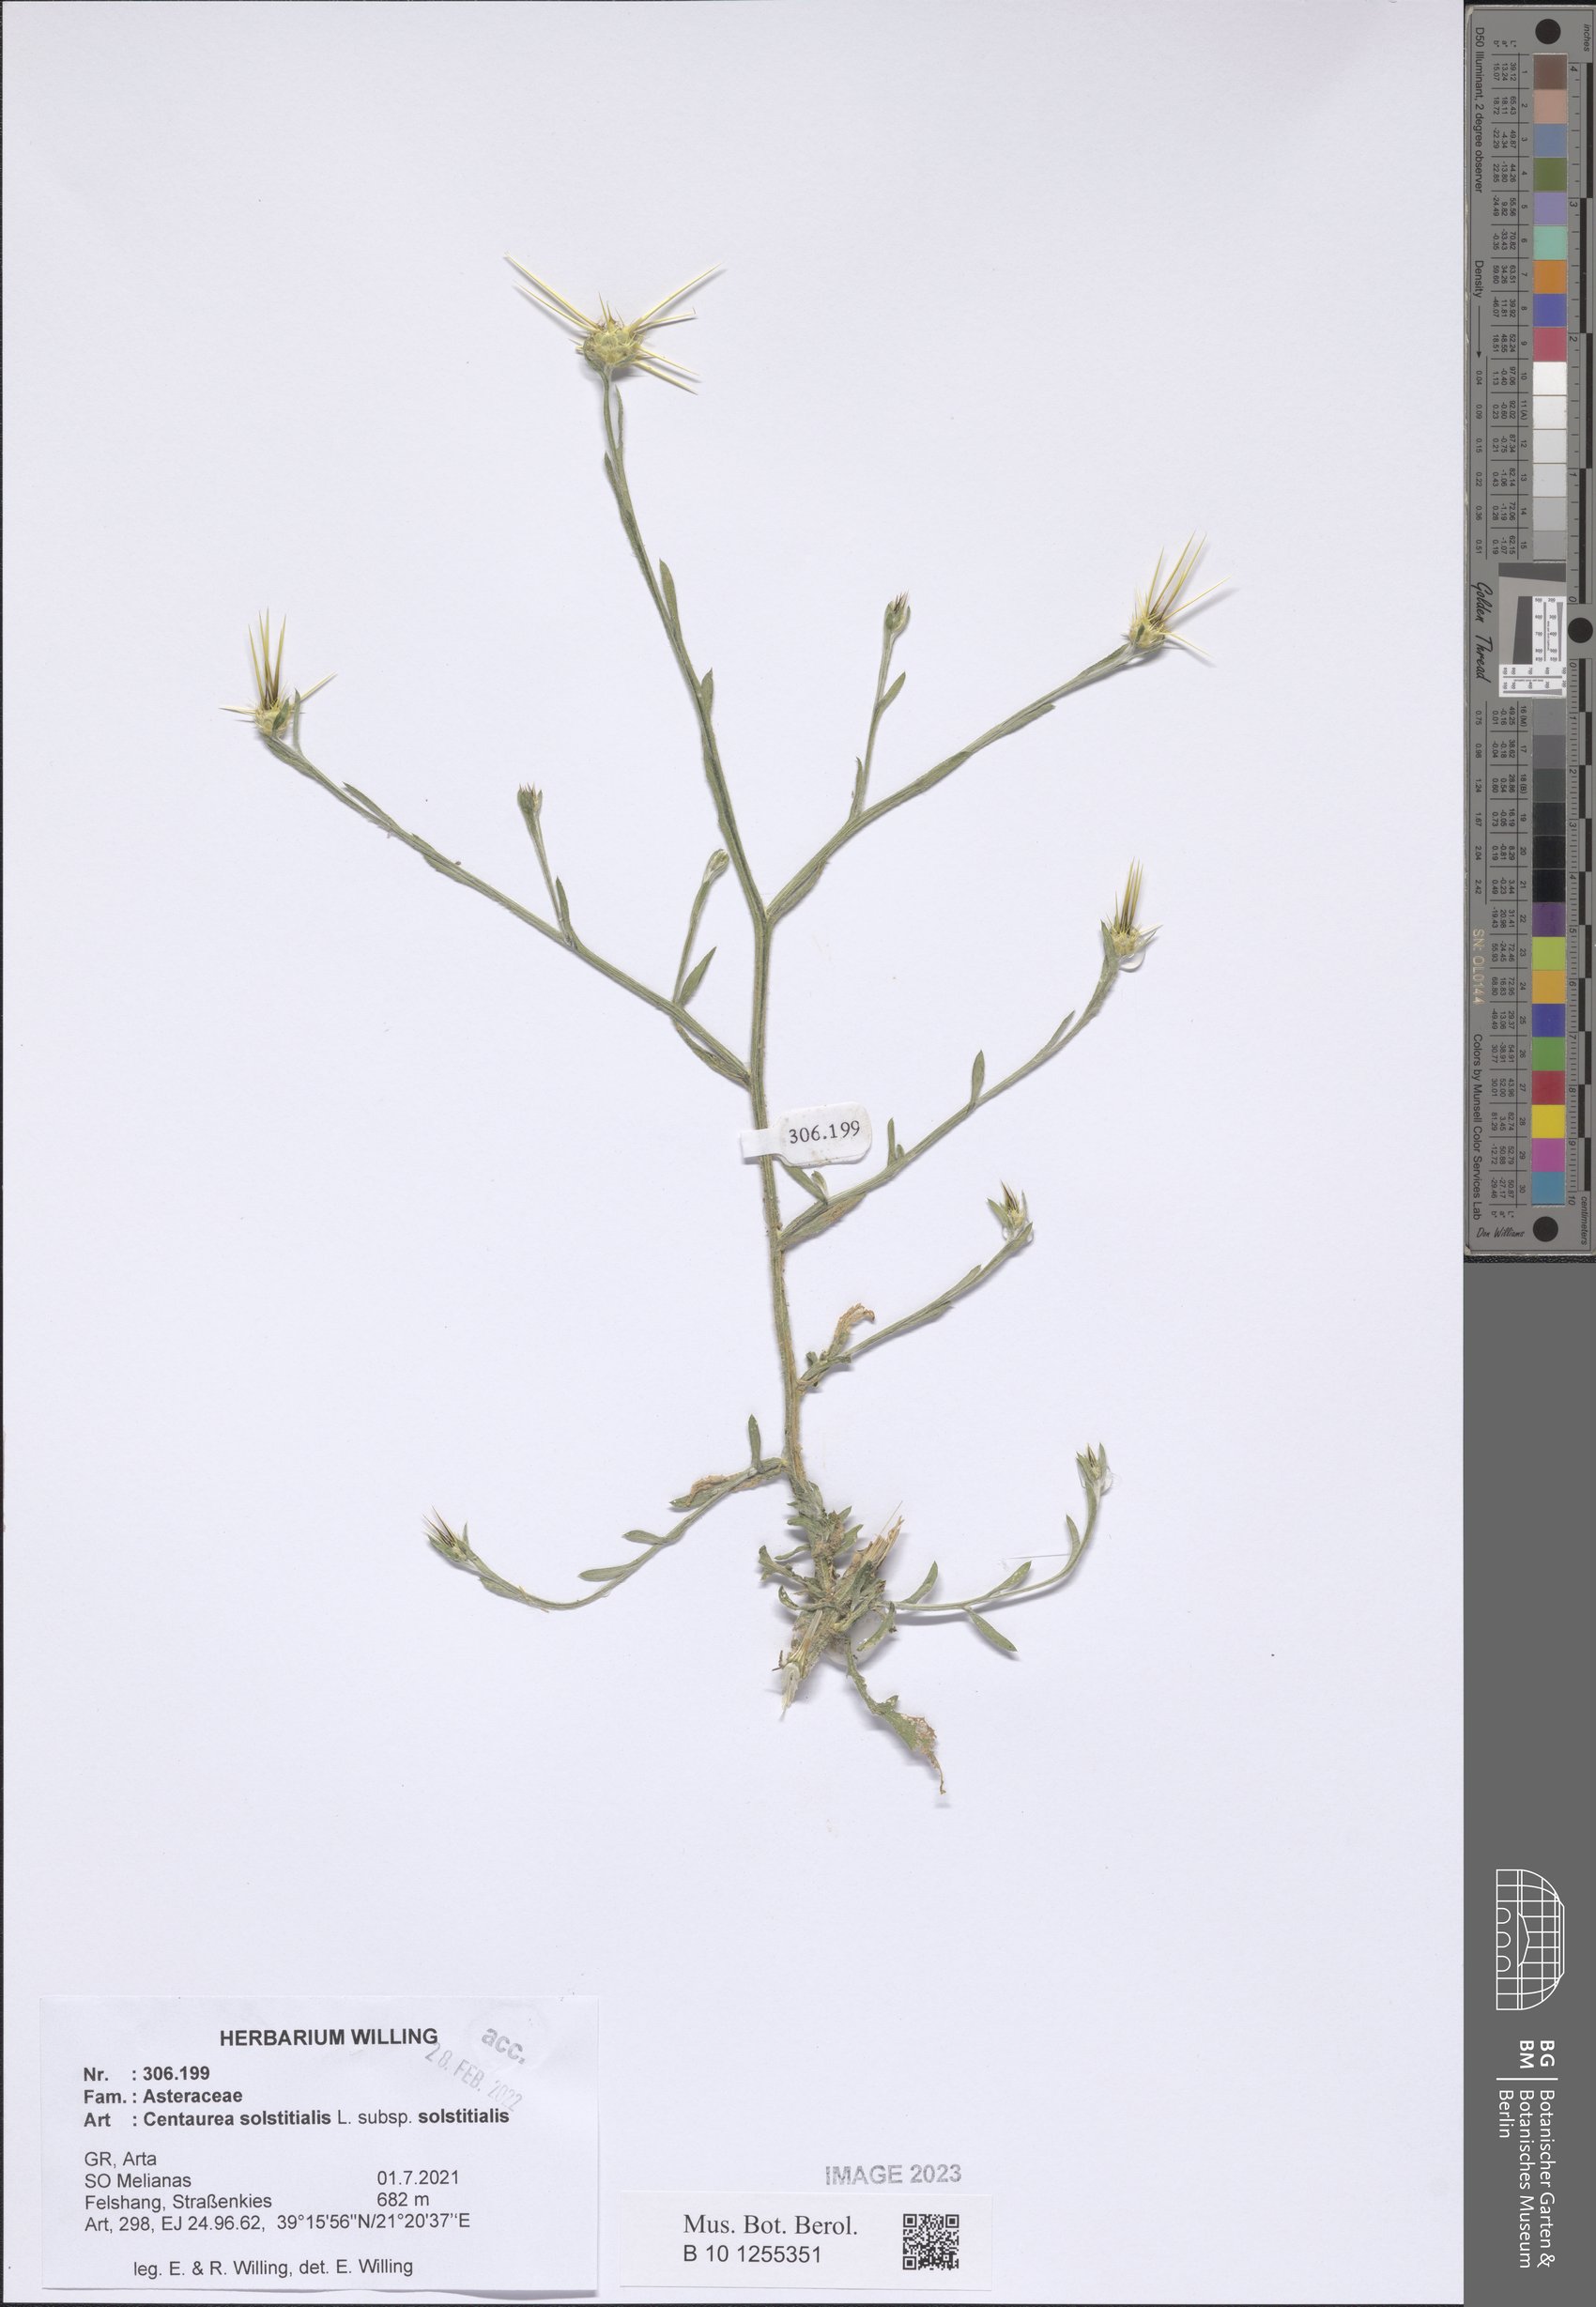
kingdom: Plantae
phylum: Tracheophyta
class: Magnoliopsida
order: Asterales
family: Asteraceae
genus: Centaurea
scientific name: Centaurea solstitialis
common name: Yellow star-thistle
